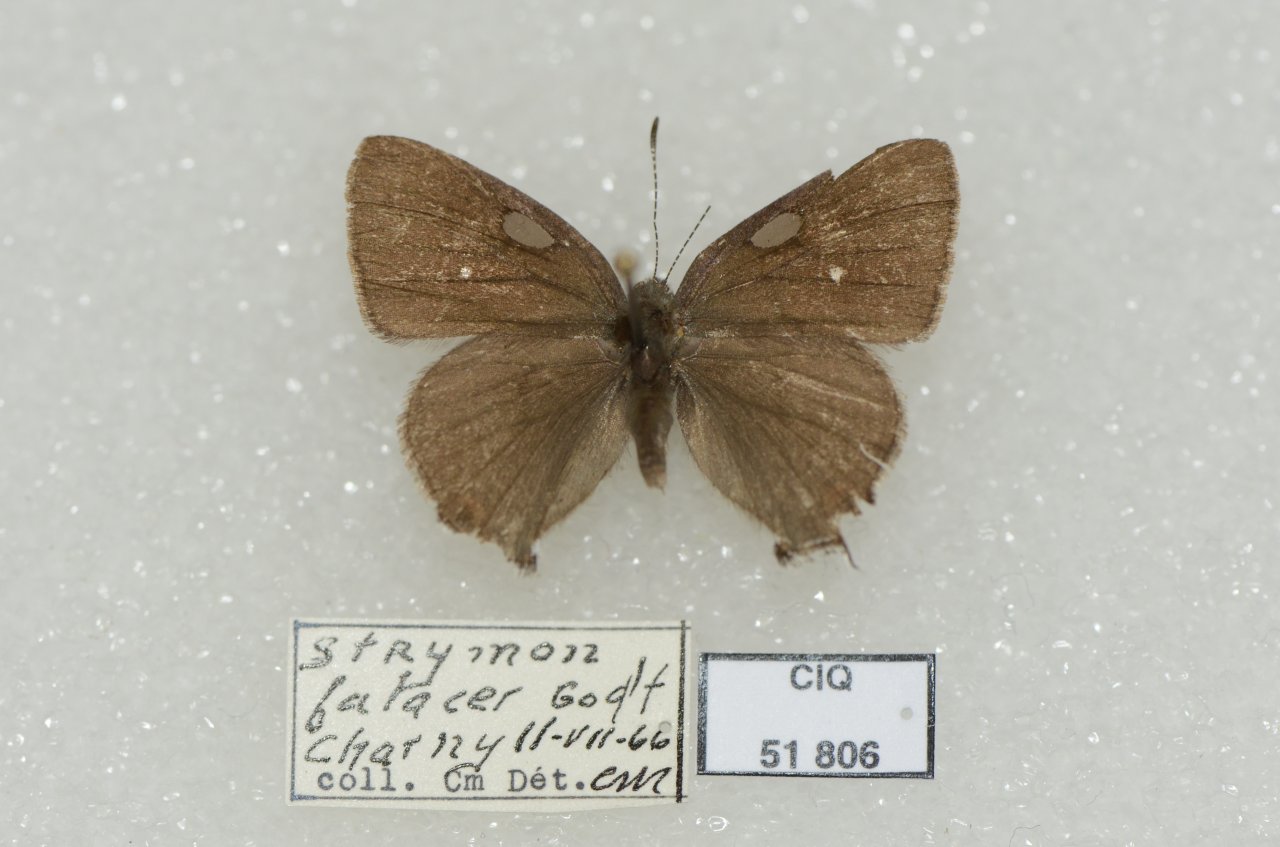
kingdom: Animalia
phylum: Arthropoda
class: Insecta
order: Lepidoptera
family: Lycaenidae
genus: Satyrium
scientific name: Satyrium calanus
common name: Banded Hairstreak
